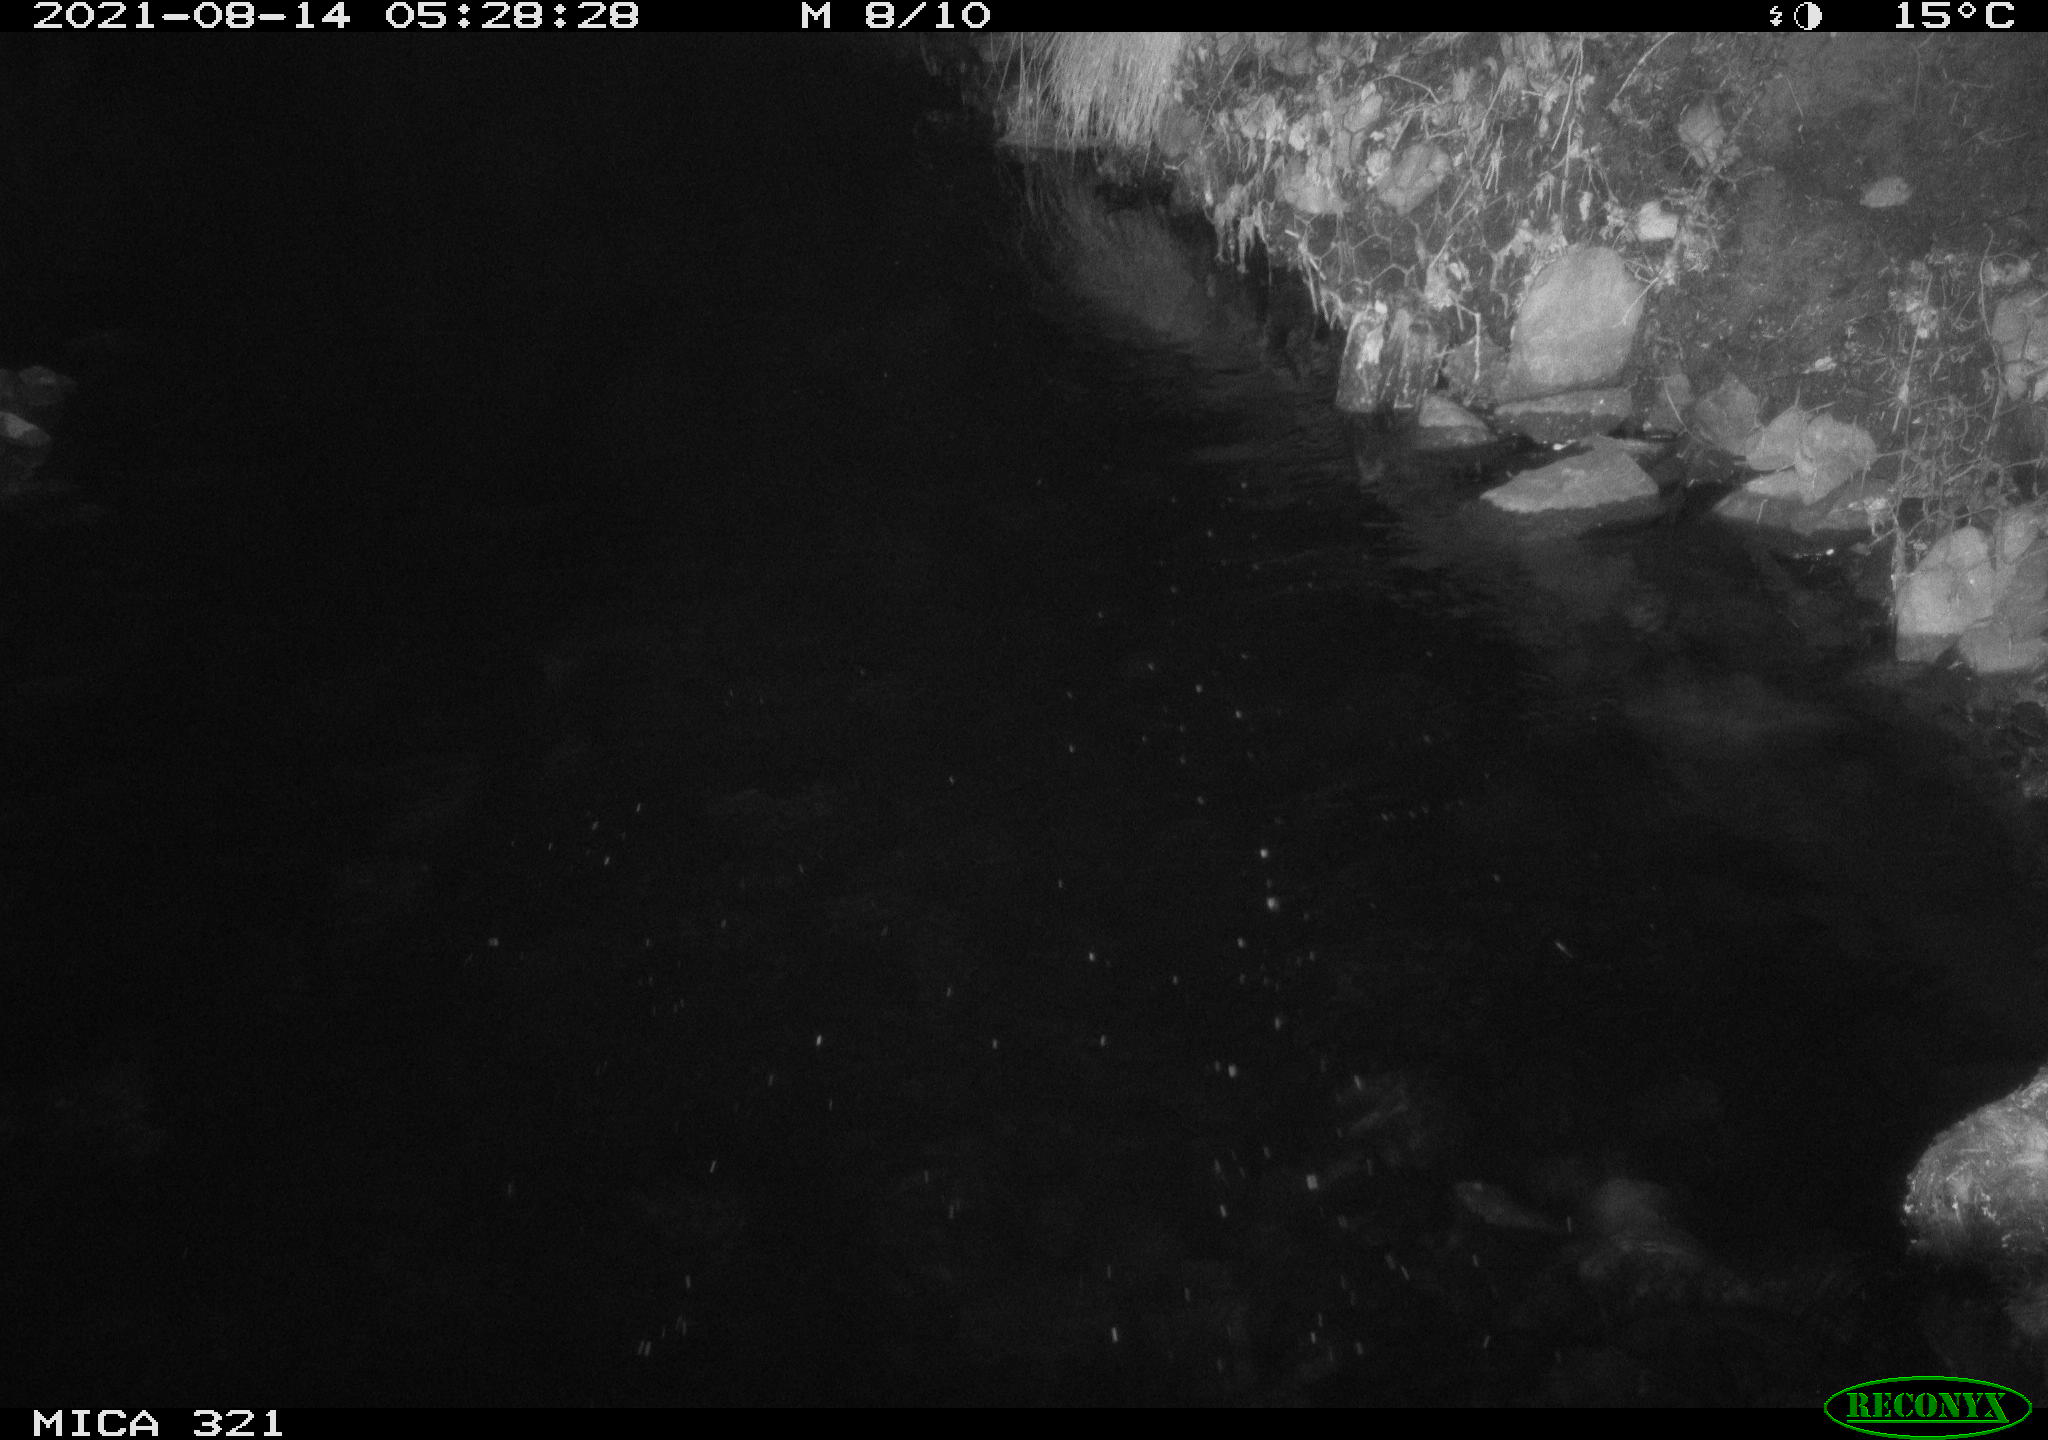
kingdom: Animalia
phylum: Chordata
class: Aves
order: Anseriformes
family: Anatidae
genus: Anas
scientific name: Anas platyrhynchos
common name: Mallard
